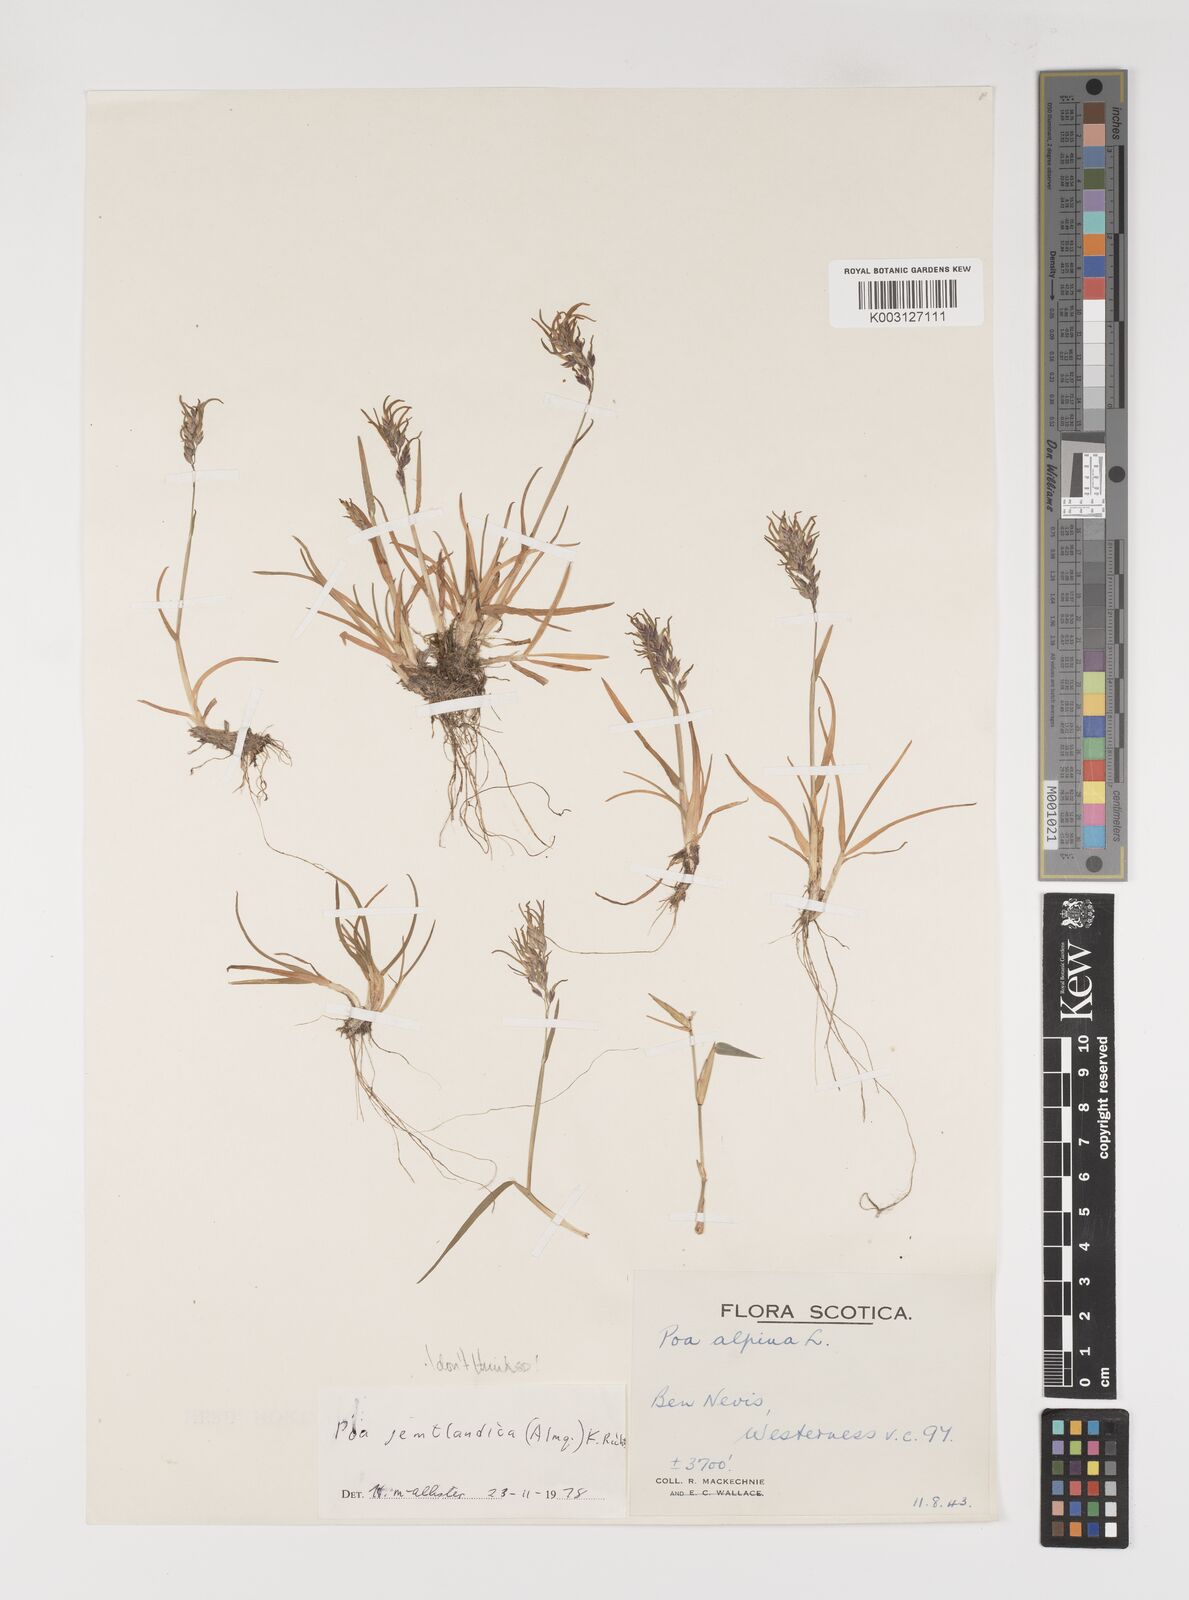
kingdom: Plantae
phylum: Tracheophyta
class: Liliopsida
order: Poales
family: Poaceae
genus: Poa
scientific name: Poa alpina
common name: Alpine bluegrass
